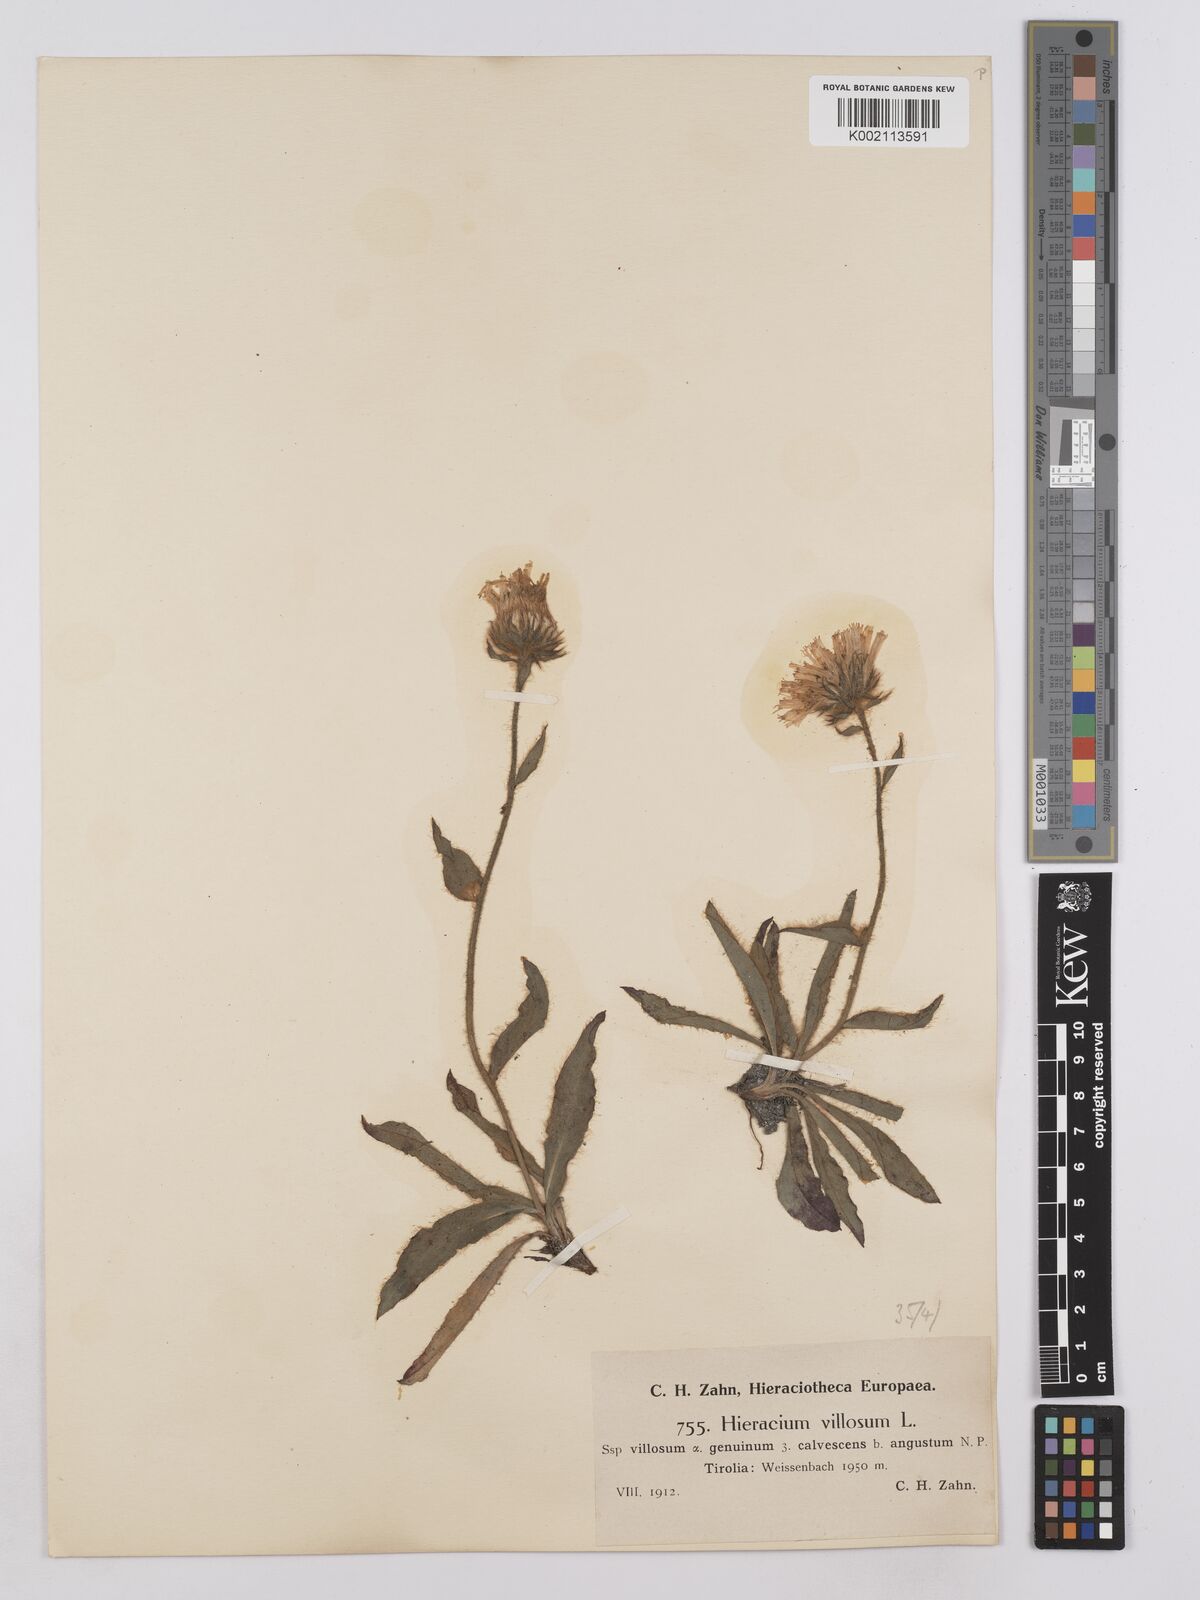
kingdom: Plantae
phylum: Tracheophyta
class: Magnoliopsida
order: Asterales
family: Asteraceae
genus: Hieracium
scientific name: Hieracium villosum
